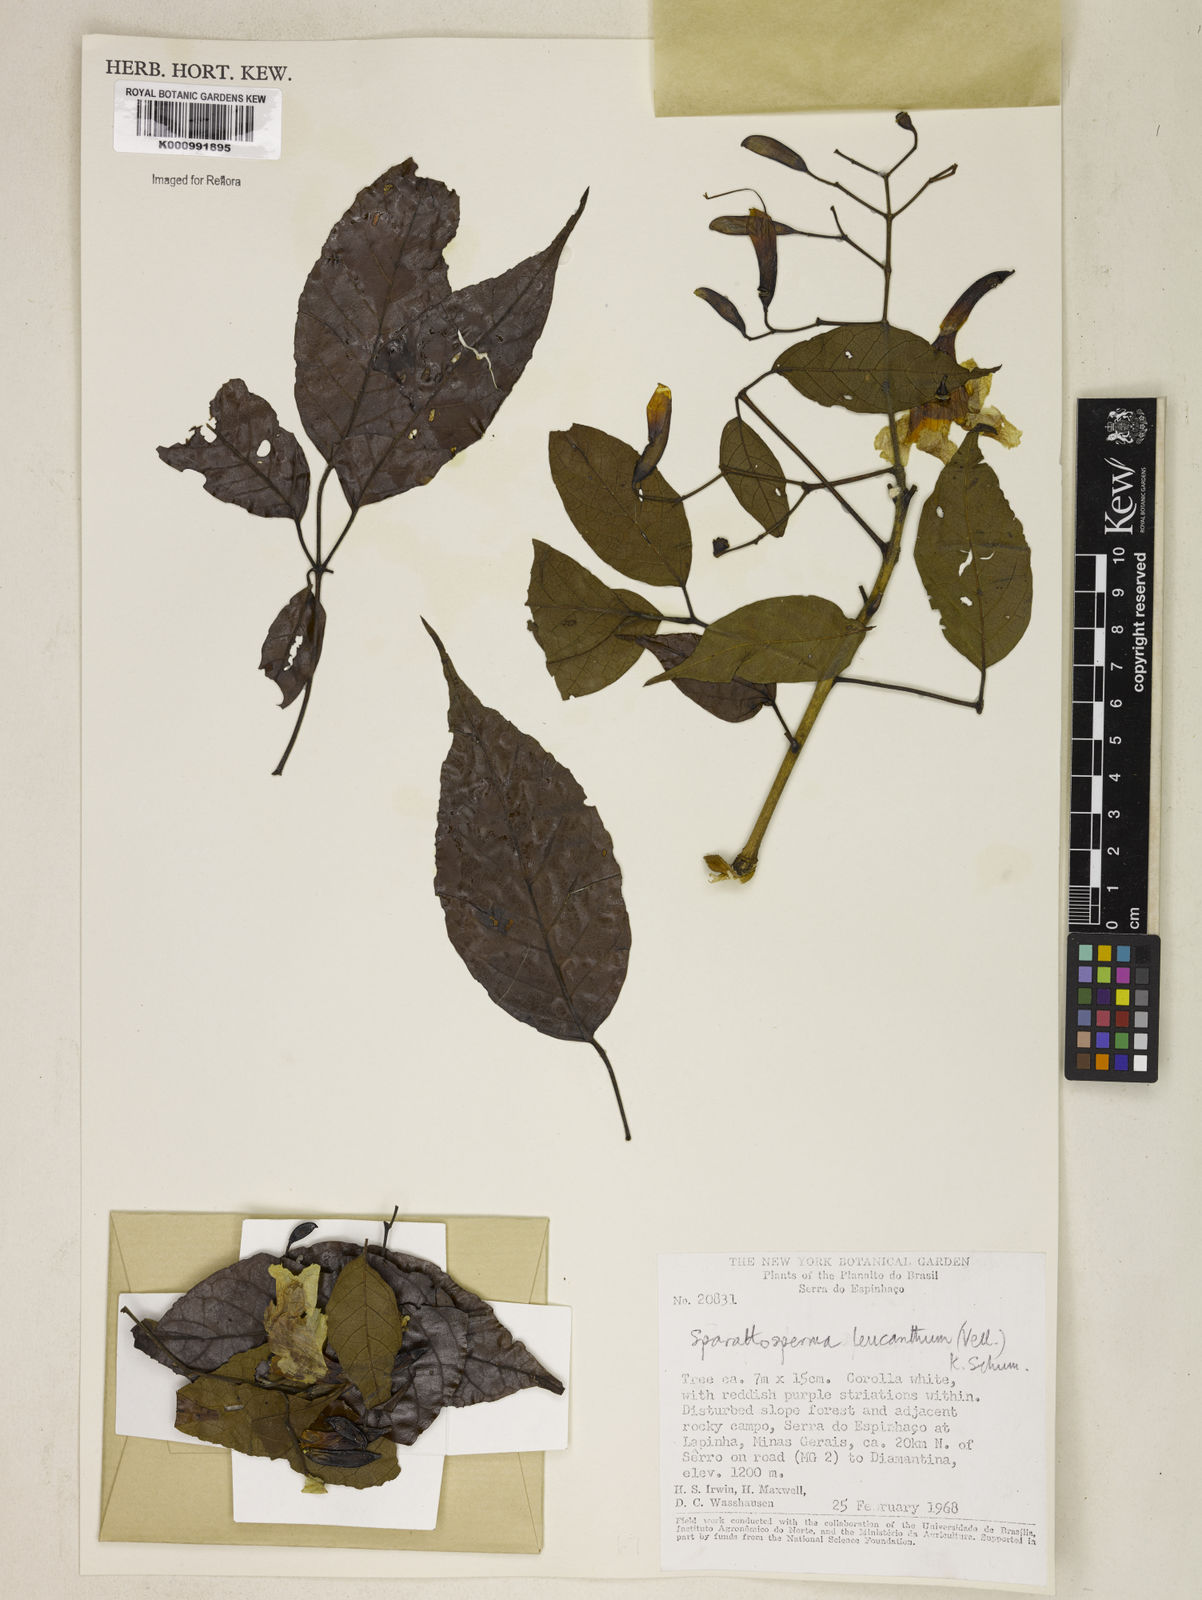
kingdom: Plantae
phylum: Tracheophyta
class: Magnoliopsida
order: Lamiales
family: Bignoniaceae
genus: Sparattosperma
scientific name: Sparattosperma leucanthum
